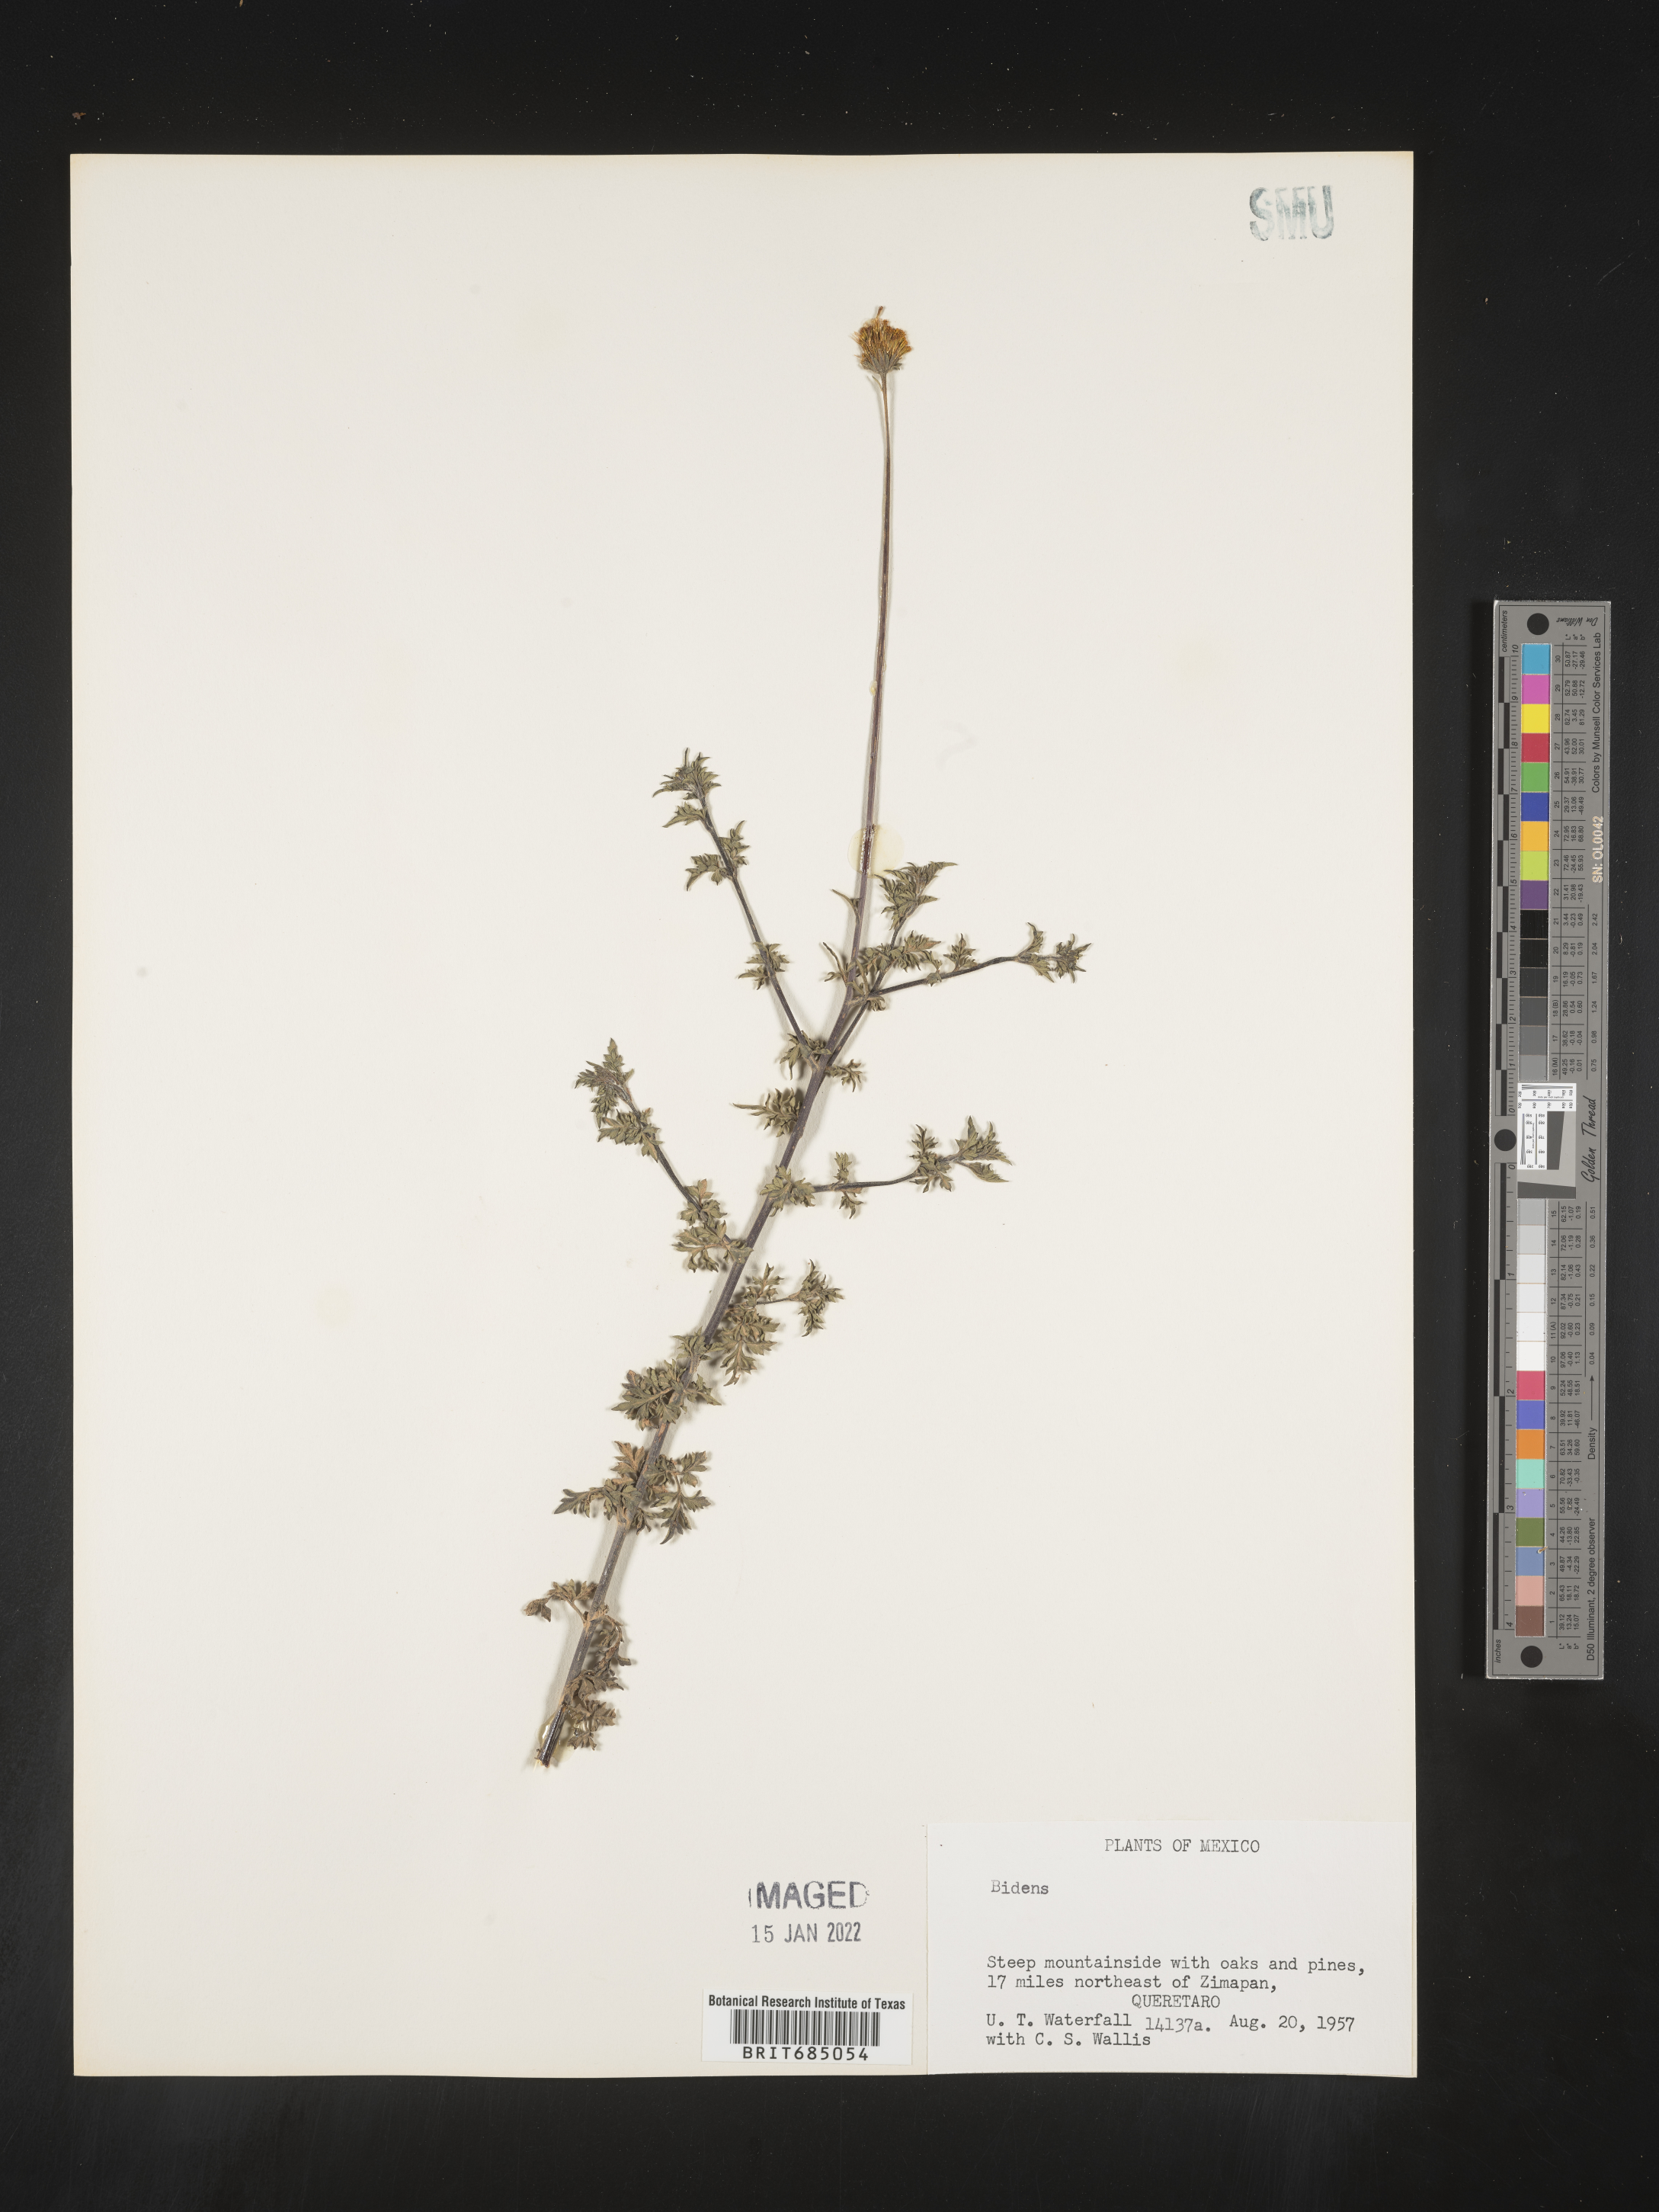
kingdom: Plantae
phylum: Tracheophyta
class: Magnoliopsida
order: Asterales
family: Asteraceae
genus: Bidens
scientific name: Bidens
